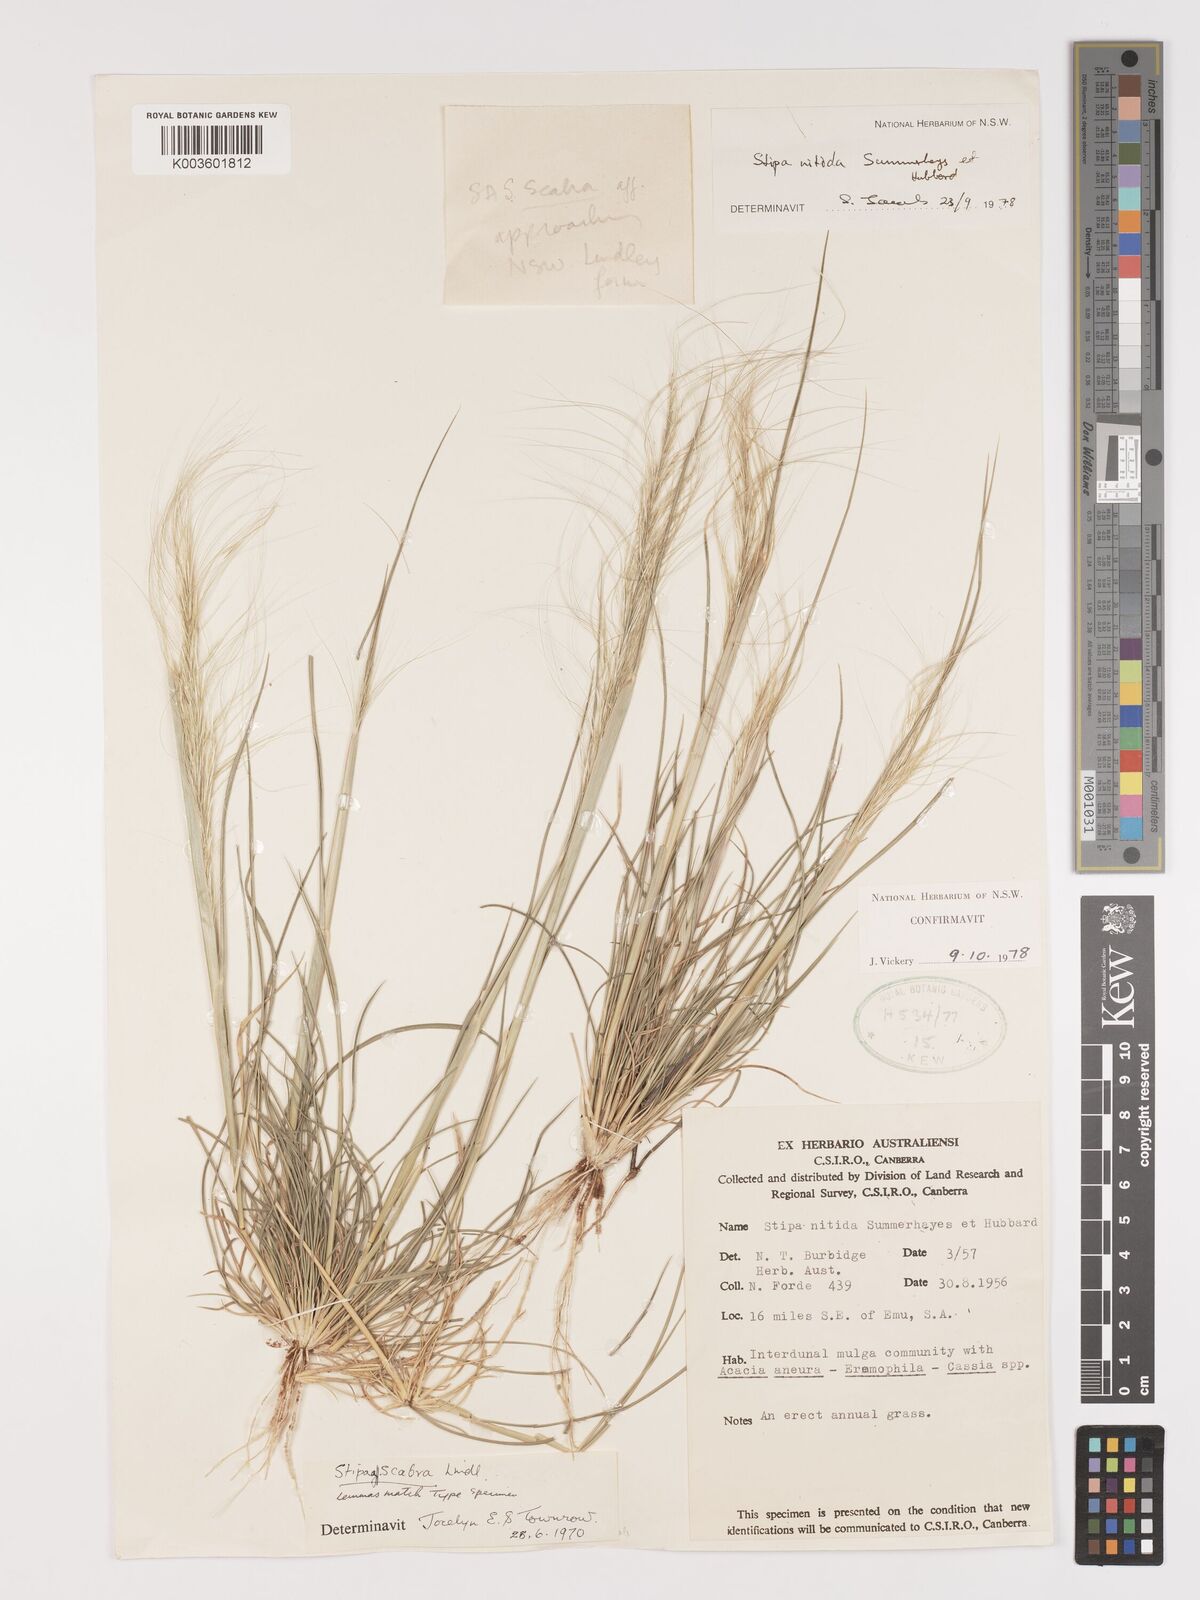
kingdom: Plantae
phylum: Tracheophyta
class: Liliopsida
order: Poales
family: Poaceae
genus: Austrostipa
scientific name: Austrostipa nitida
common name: Balcarra grass
